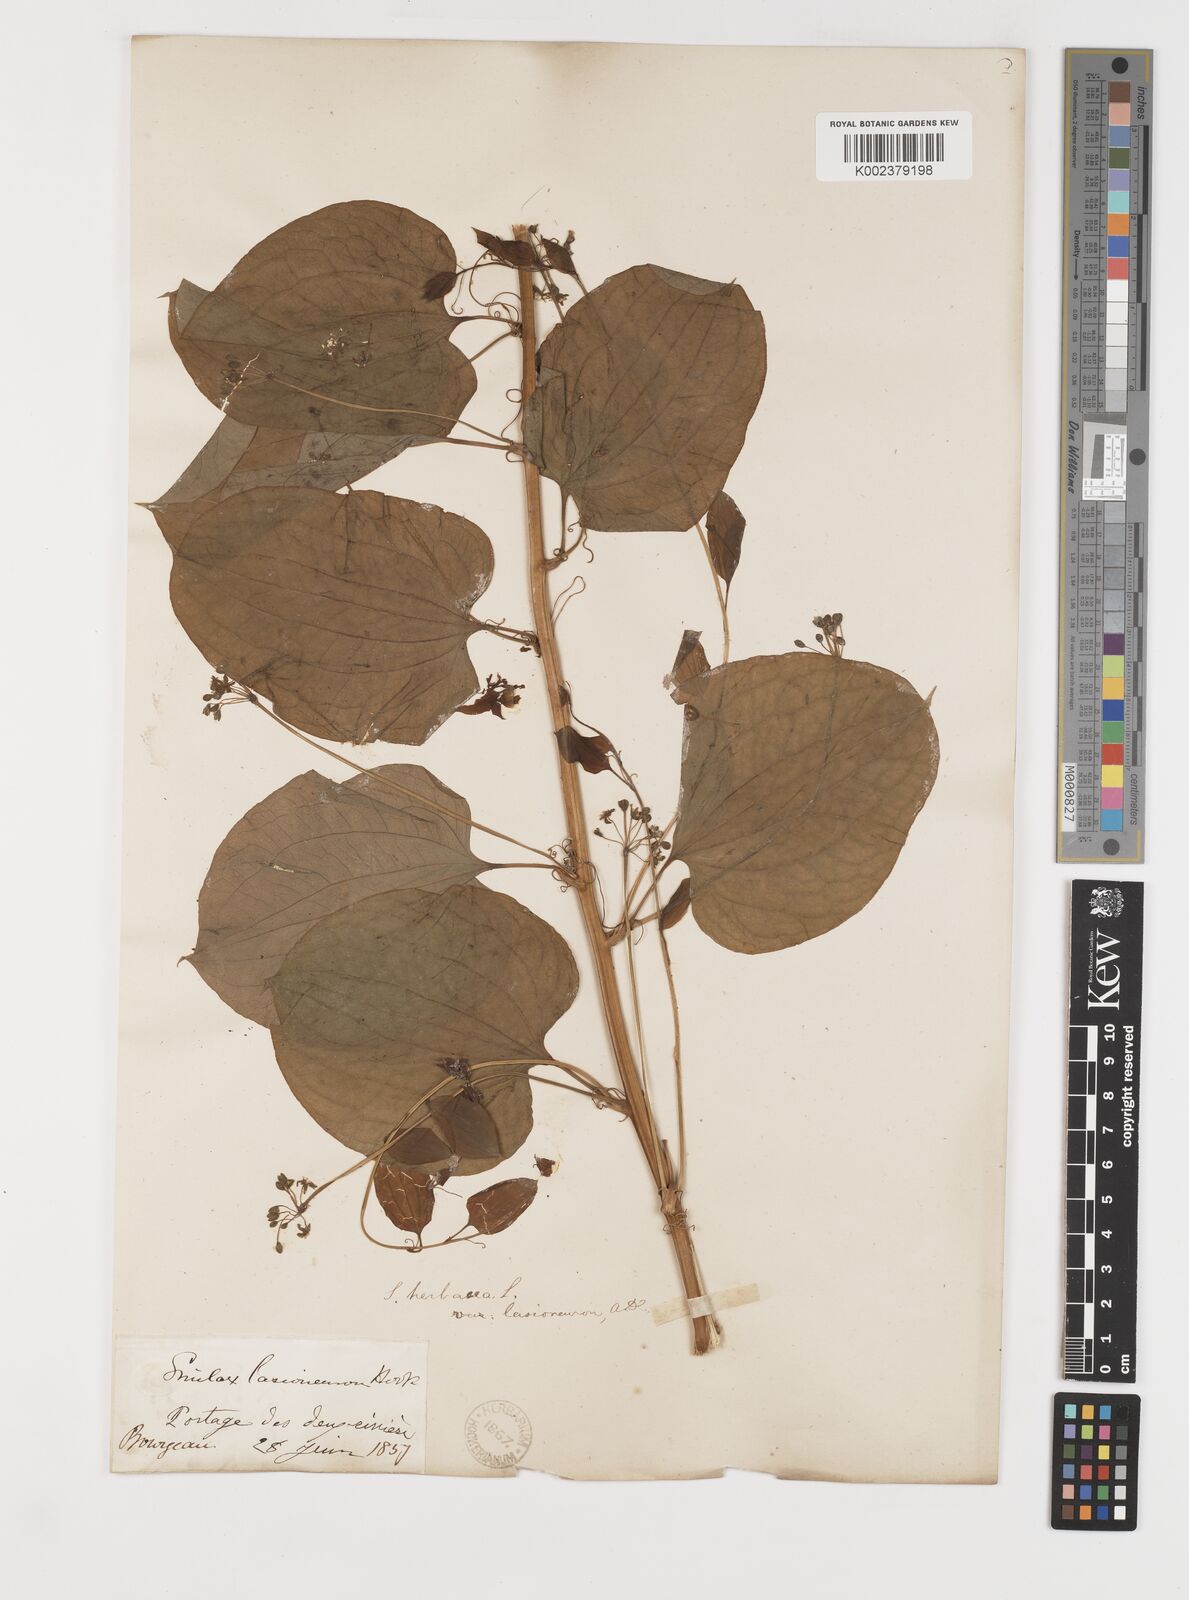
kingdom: Plantae
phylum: Tracheophyta
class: Liliopsida
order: Liliales
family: Smilacaceae
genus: Smilax
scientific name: Smilax lasioneura
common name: Blue ridge carrionflower
